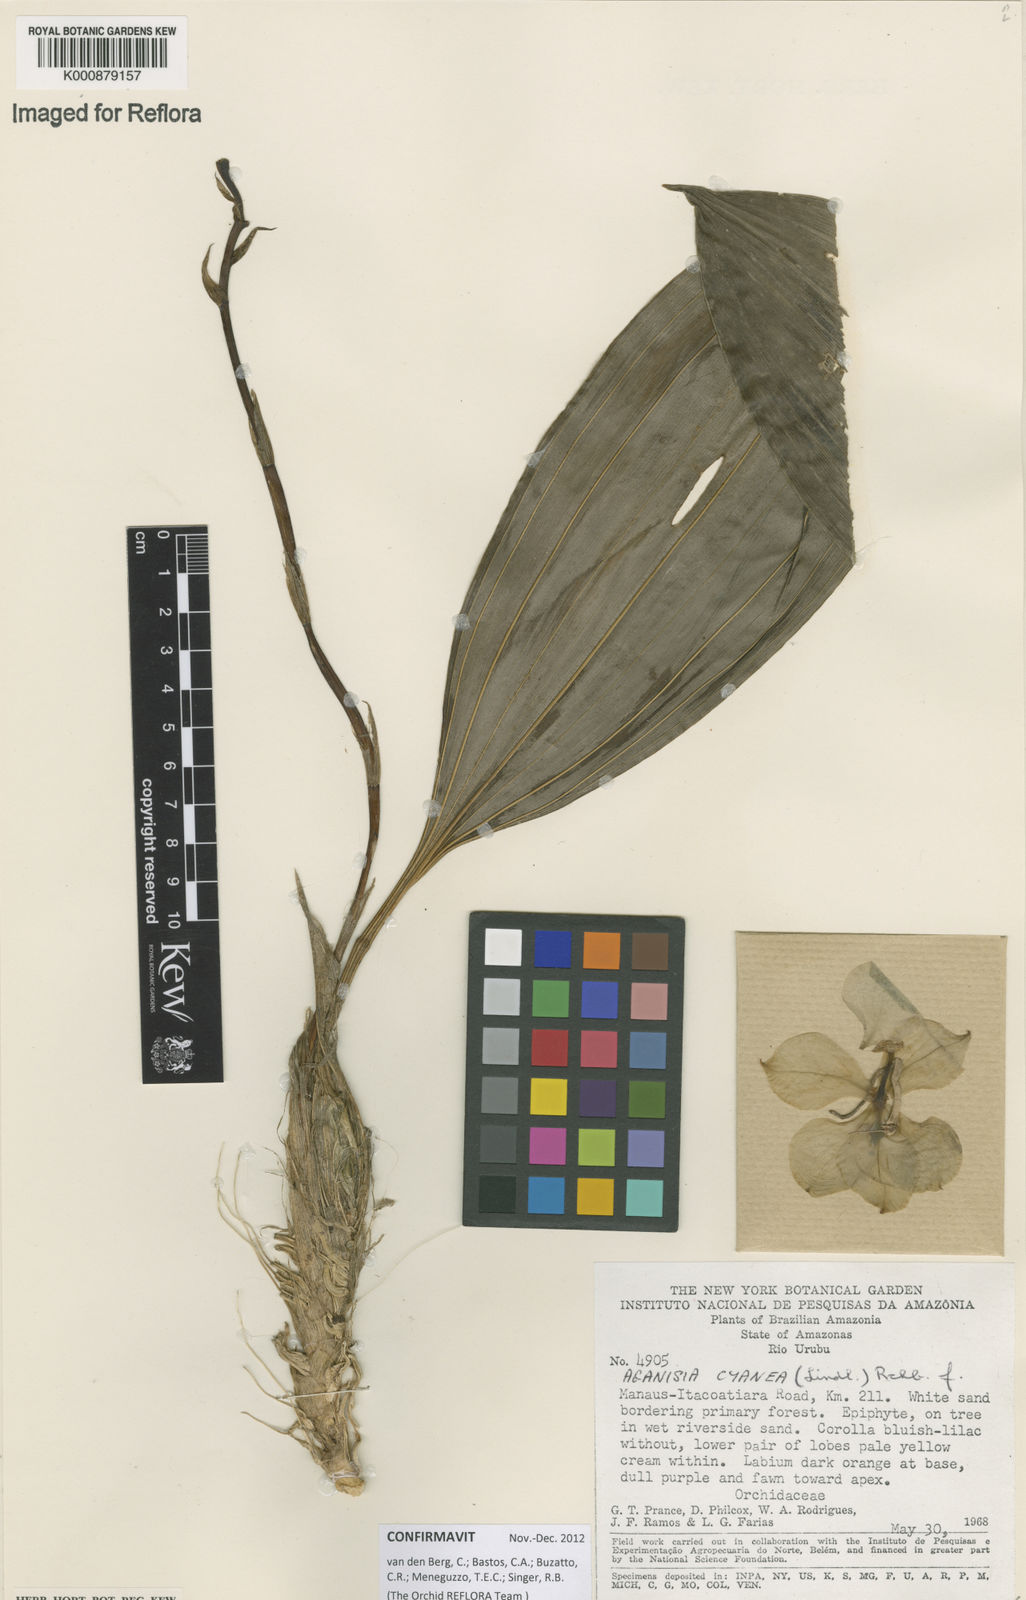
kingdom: Plantae
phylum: Tracheophyta
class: Liliopsida
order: Asparagales
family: Orchidaceae
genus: Aganisia
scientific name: Aganisia cyanea
